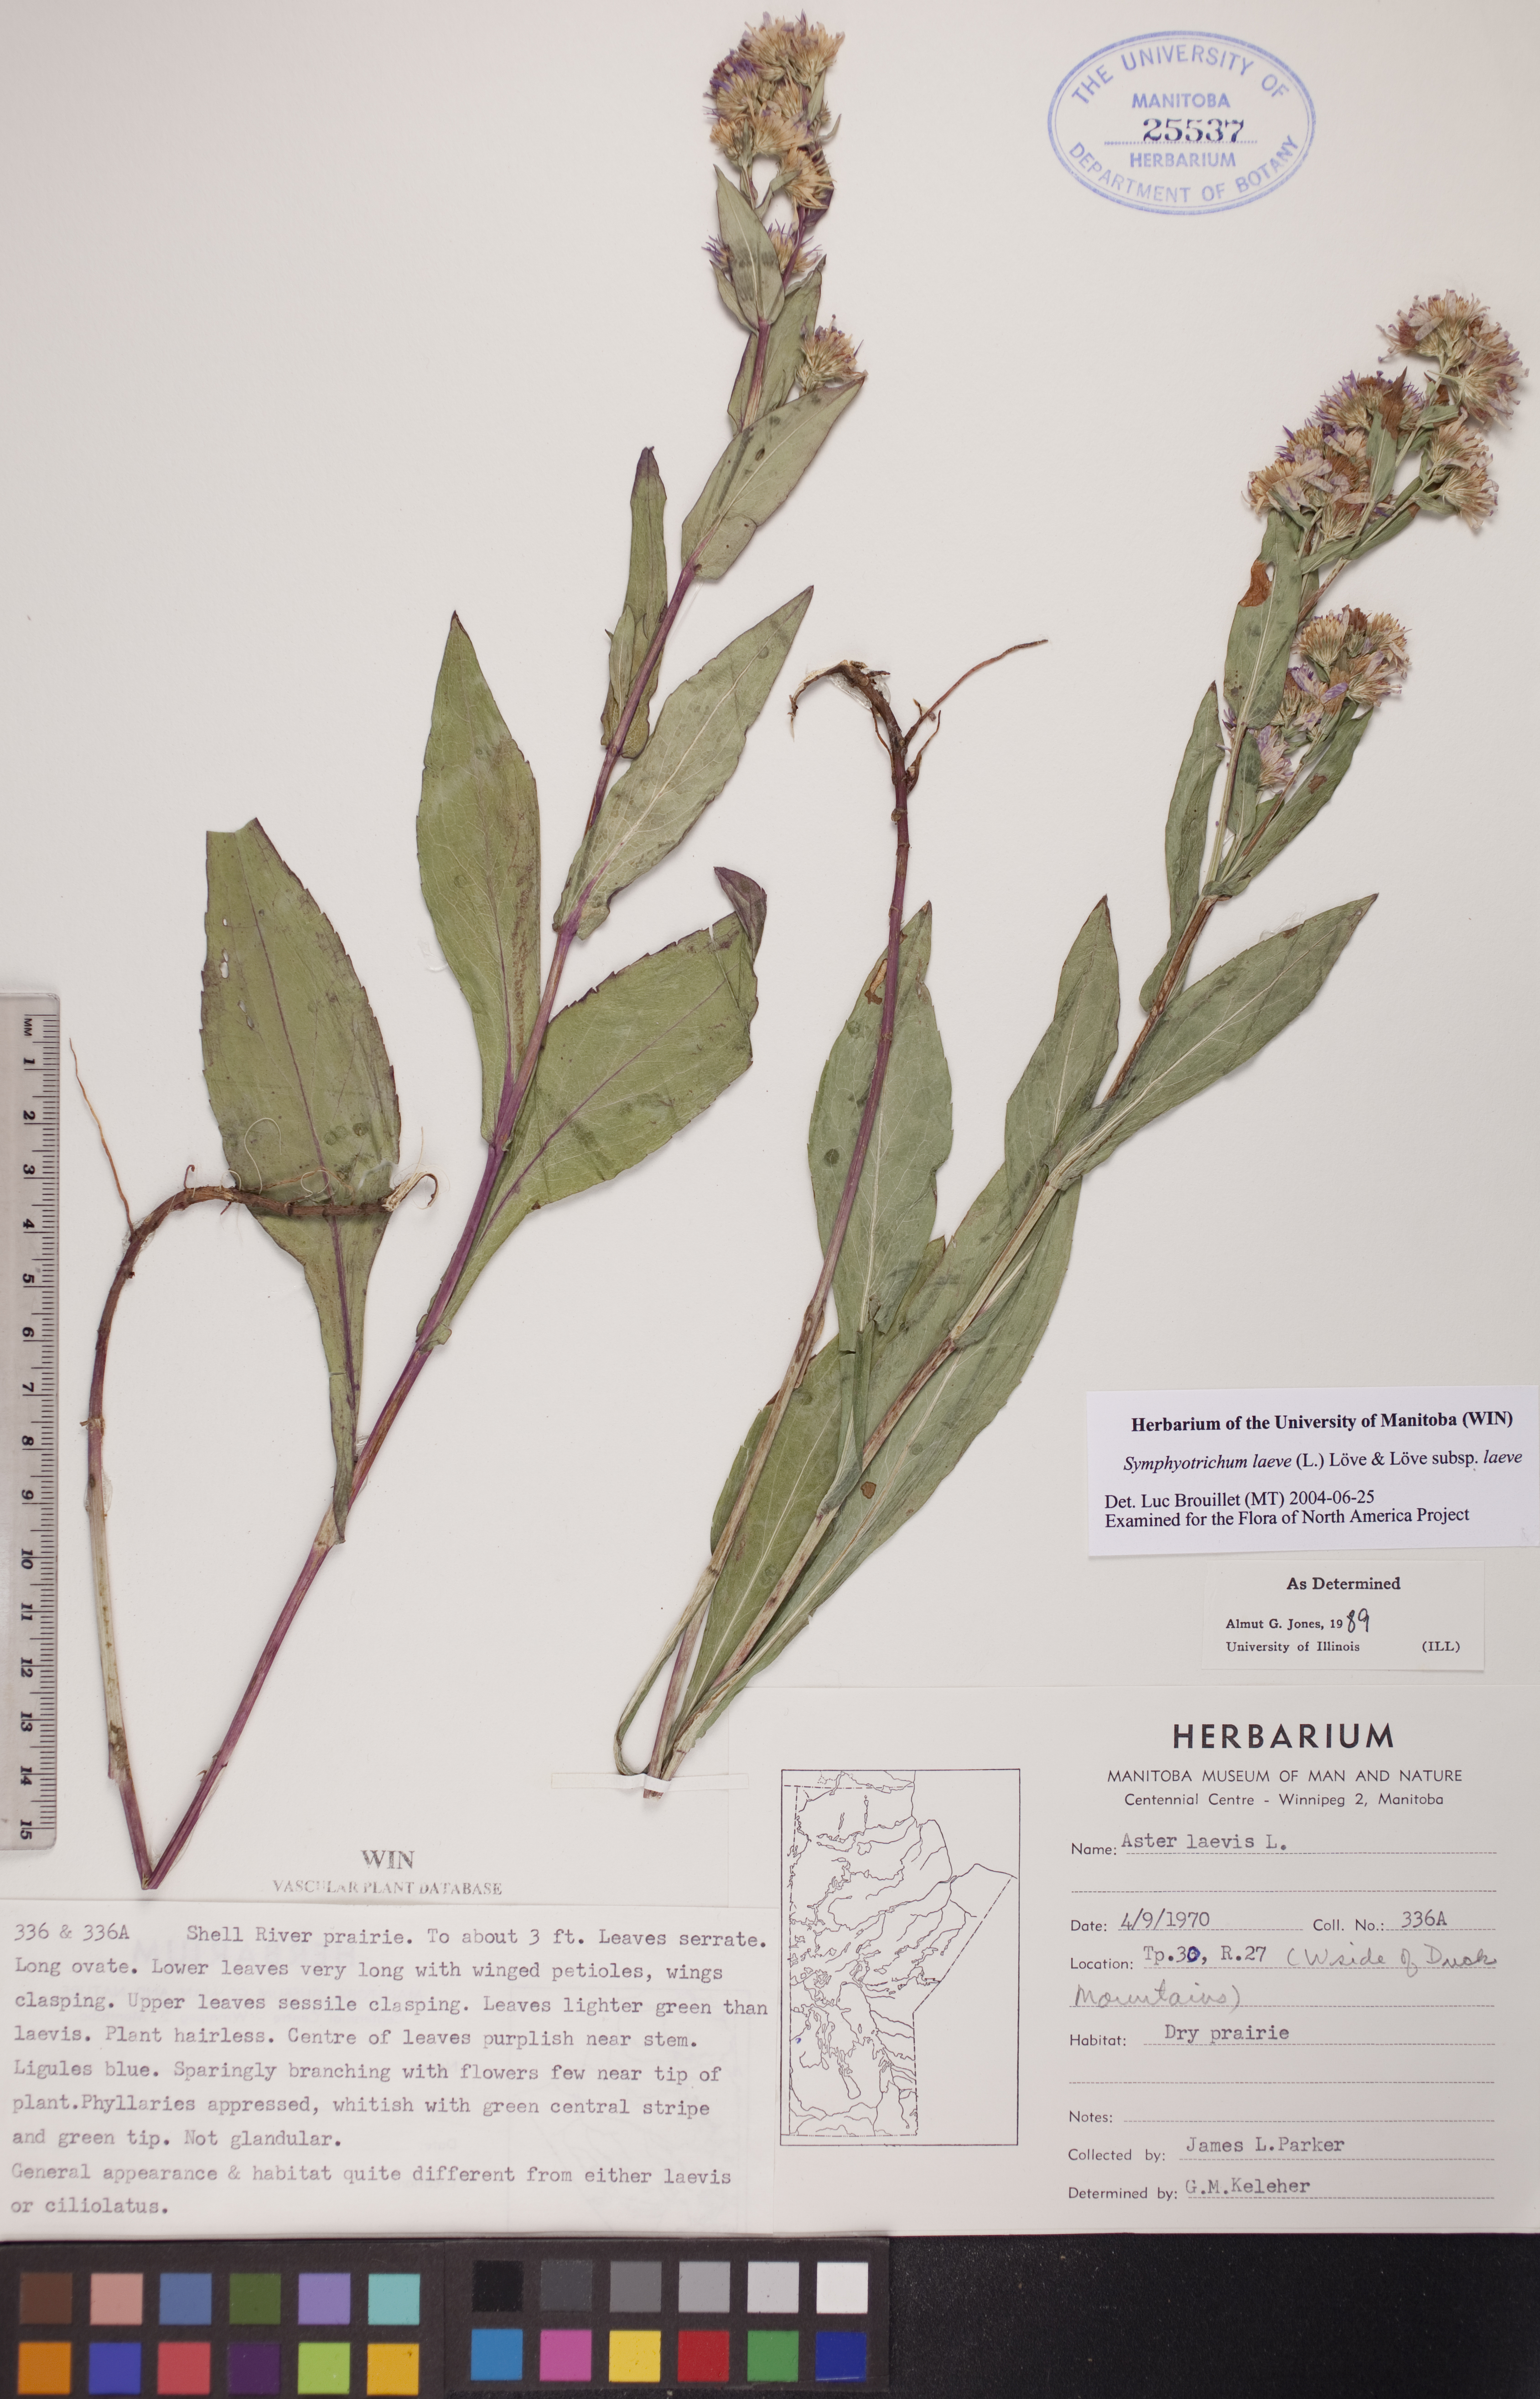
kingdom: Plantae
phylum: Tracheophyta
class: Magnoliopsida
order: Asterales
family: Asteraceae
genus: Symphyotrichum
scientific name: Symphyotrichum laeve
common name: Glaucous aster
